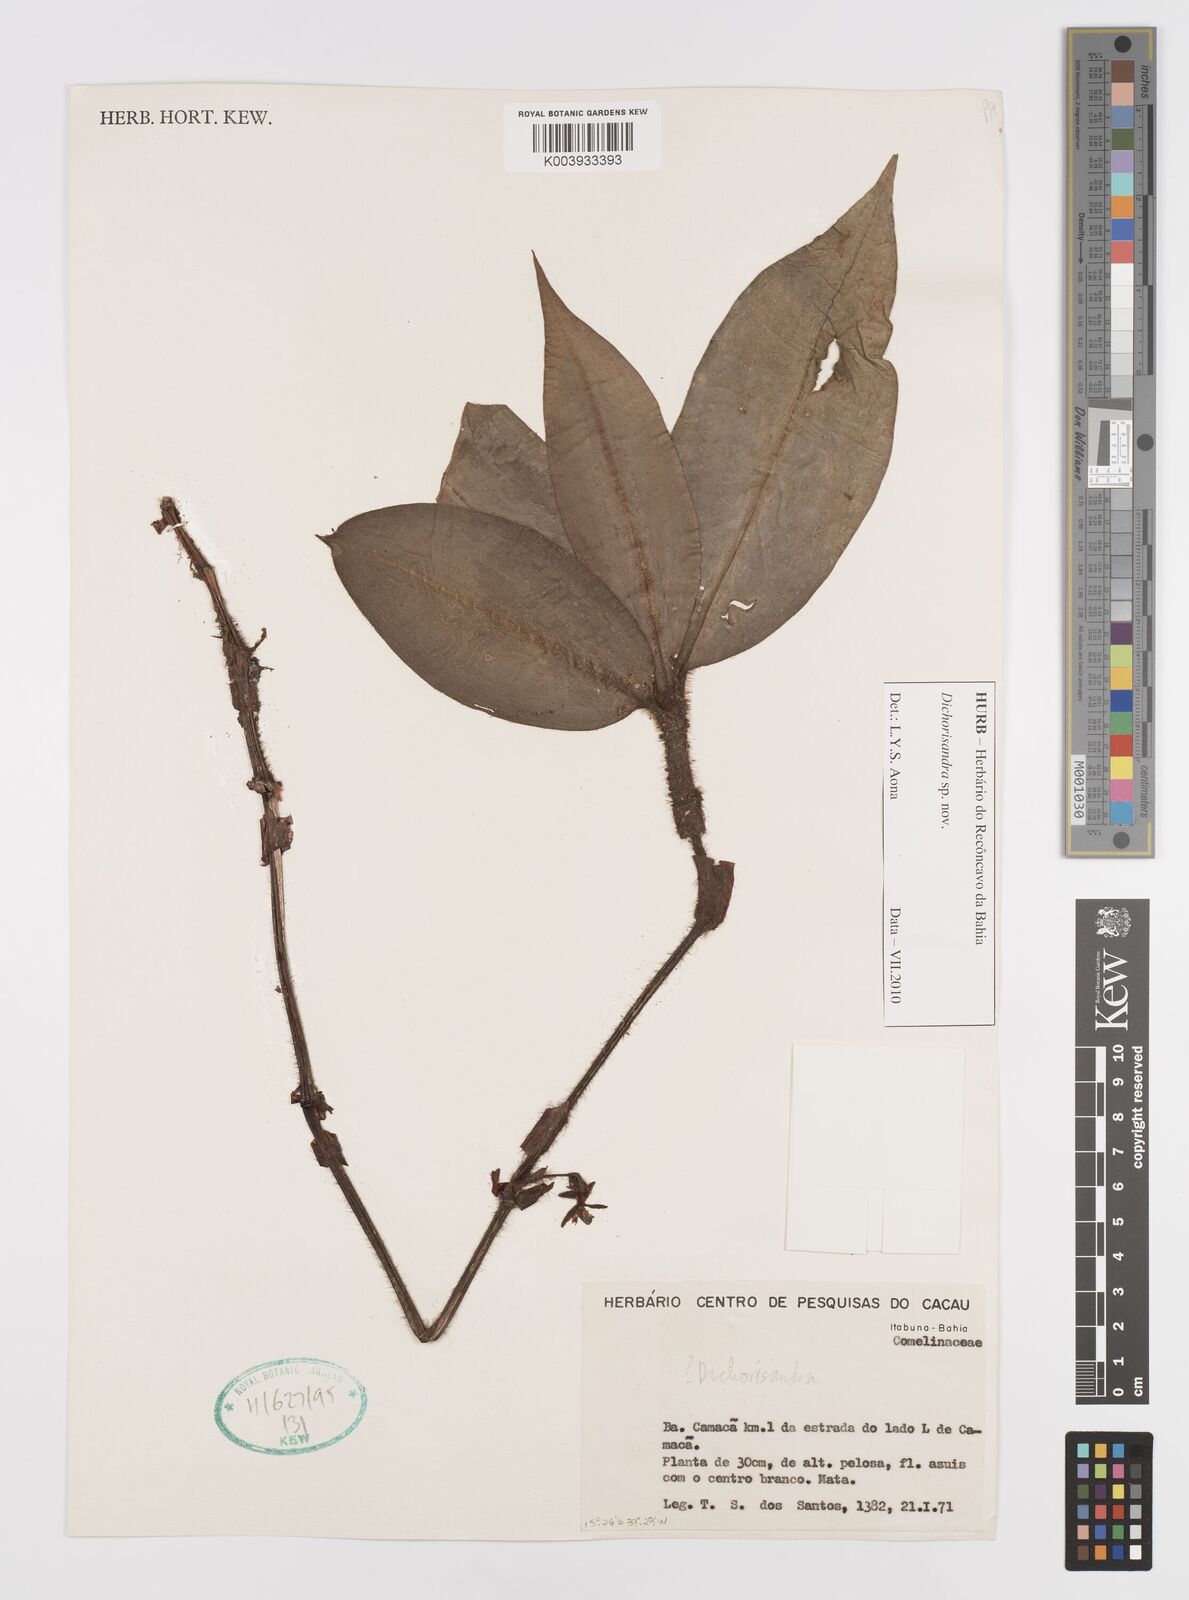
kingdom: Plantae
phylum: Tracheophyta
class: Liliopsida
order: Commelinales
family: Commelinaceae
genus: Dichorisandra
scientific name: Dichorisandra
